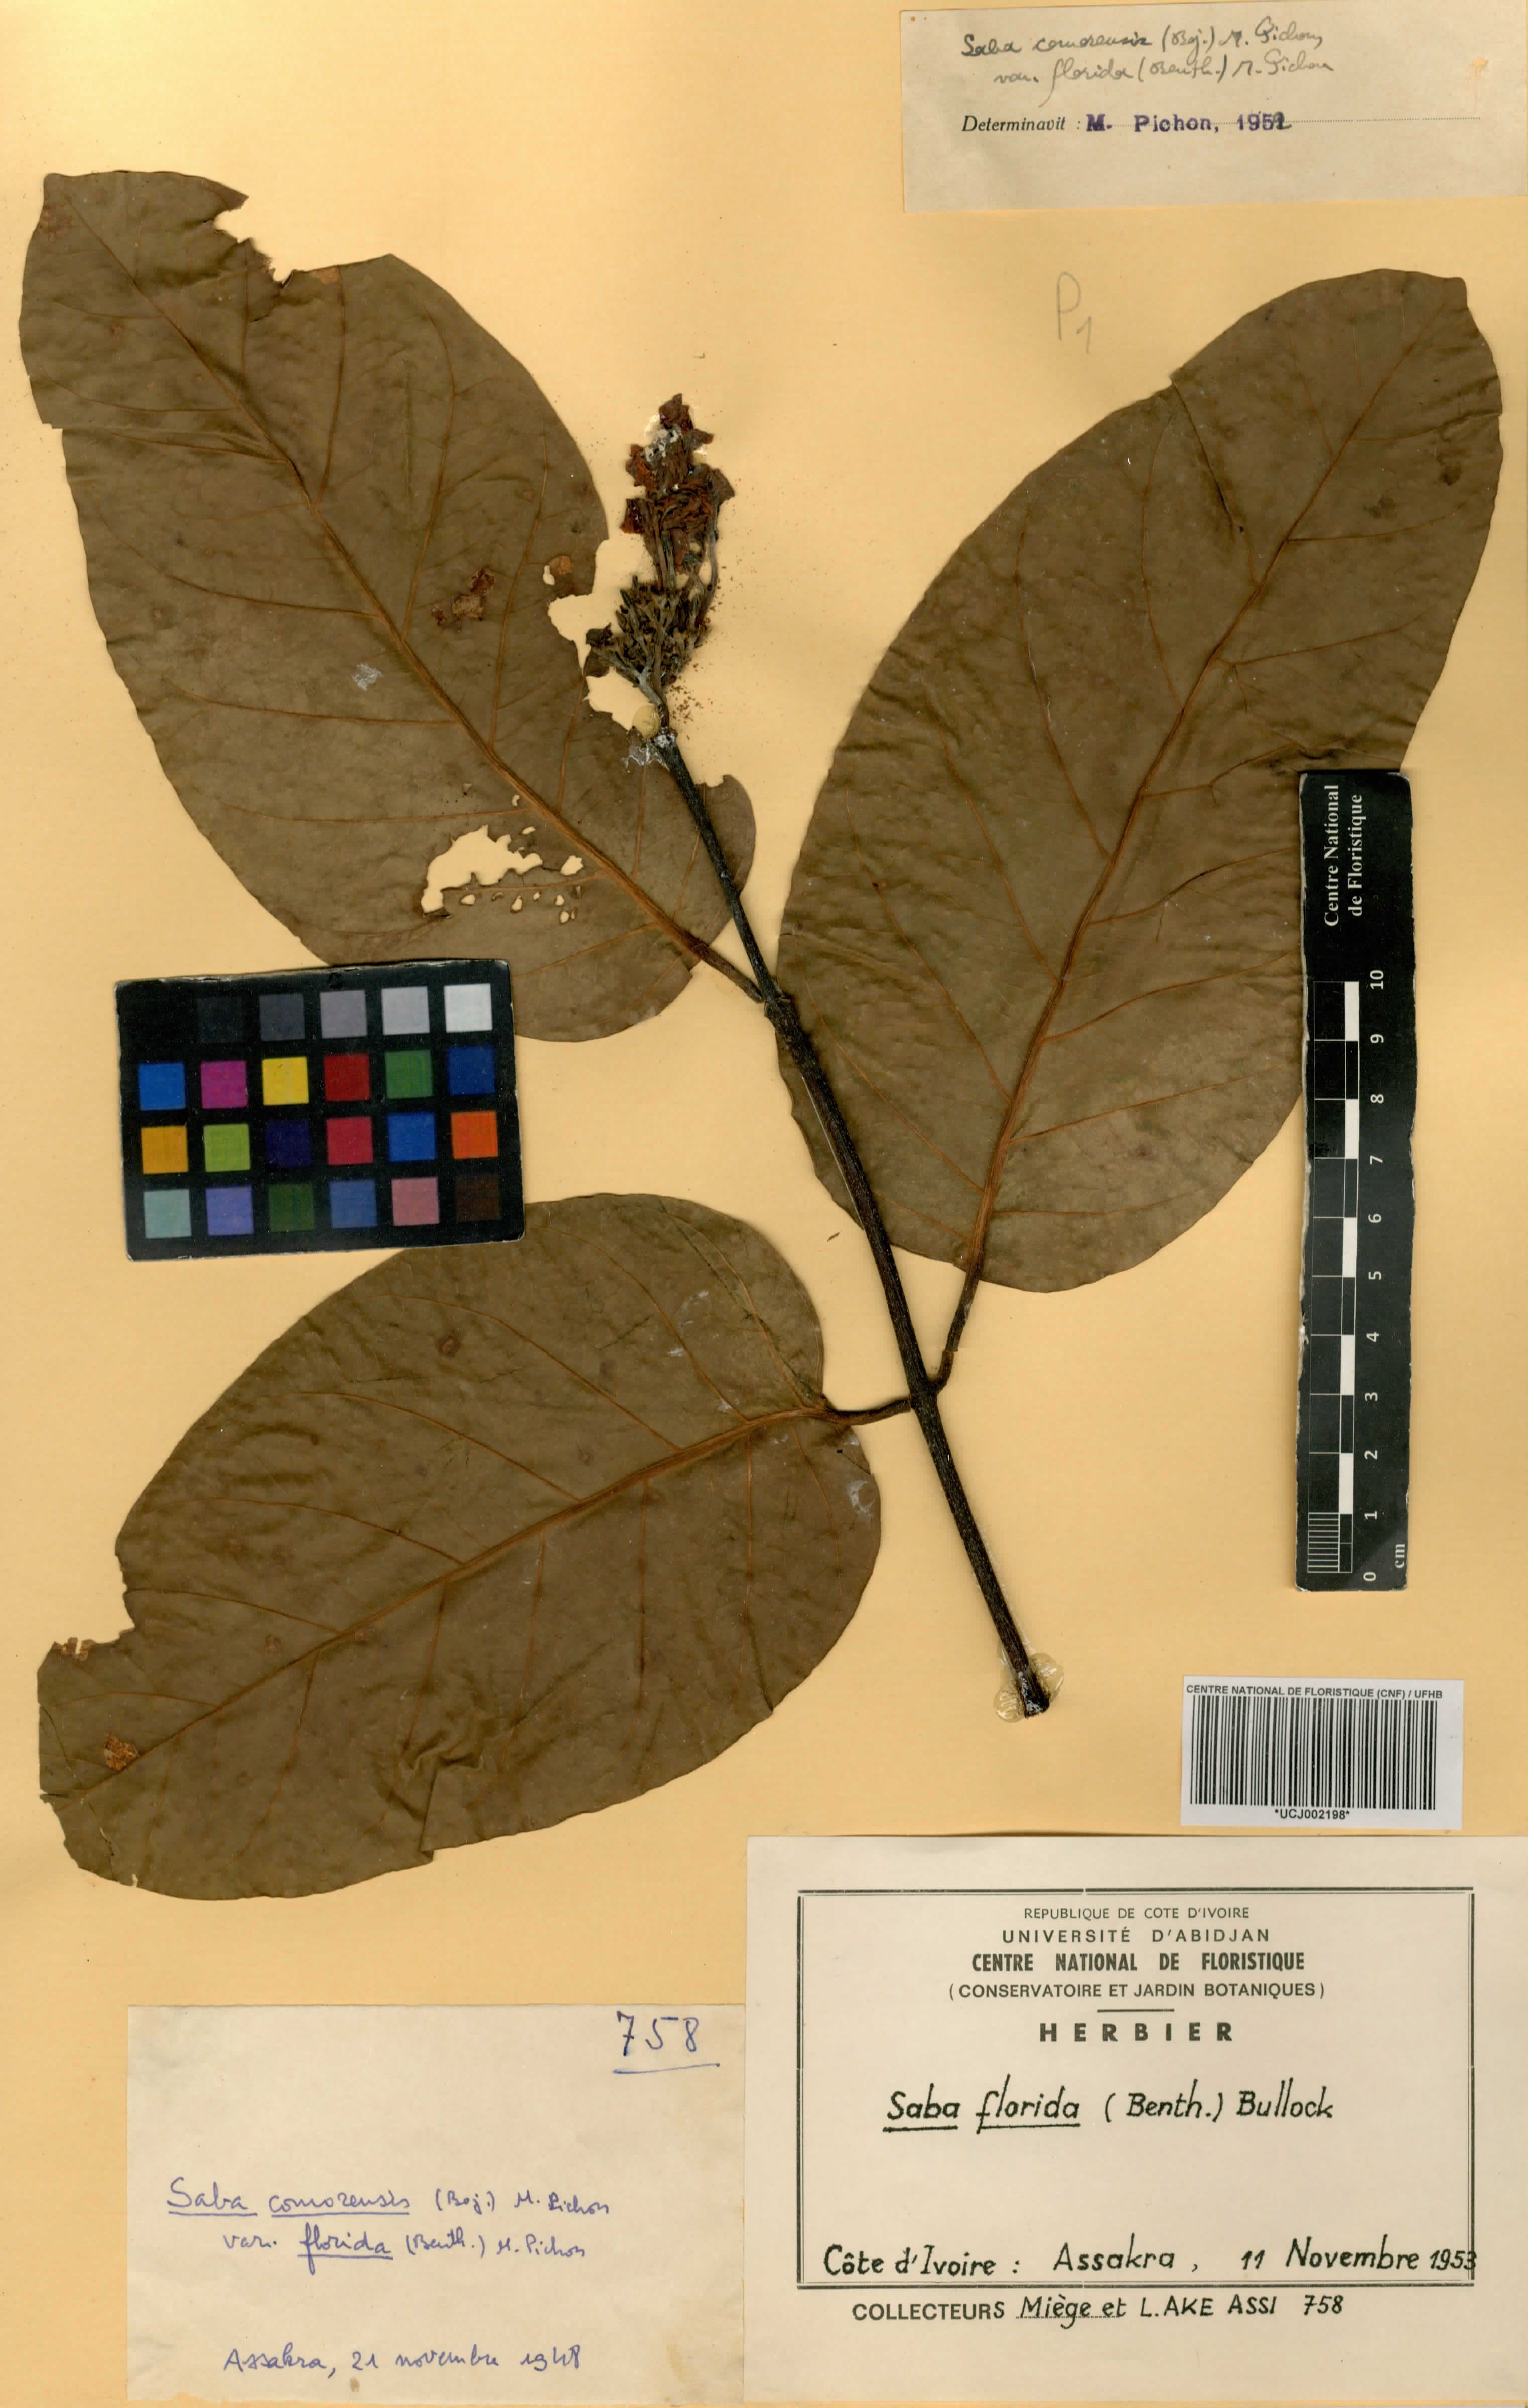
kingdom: Plantae
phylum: Tracheophyta
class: Magnoliopsida
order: Gentianales
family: Apocynaceae
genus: Saba
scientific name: Saba comorensis
